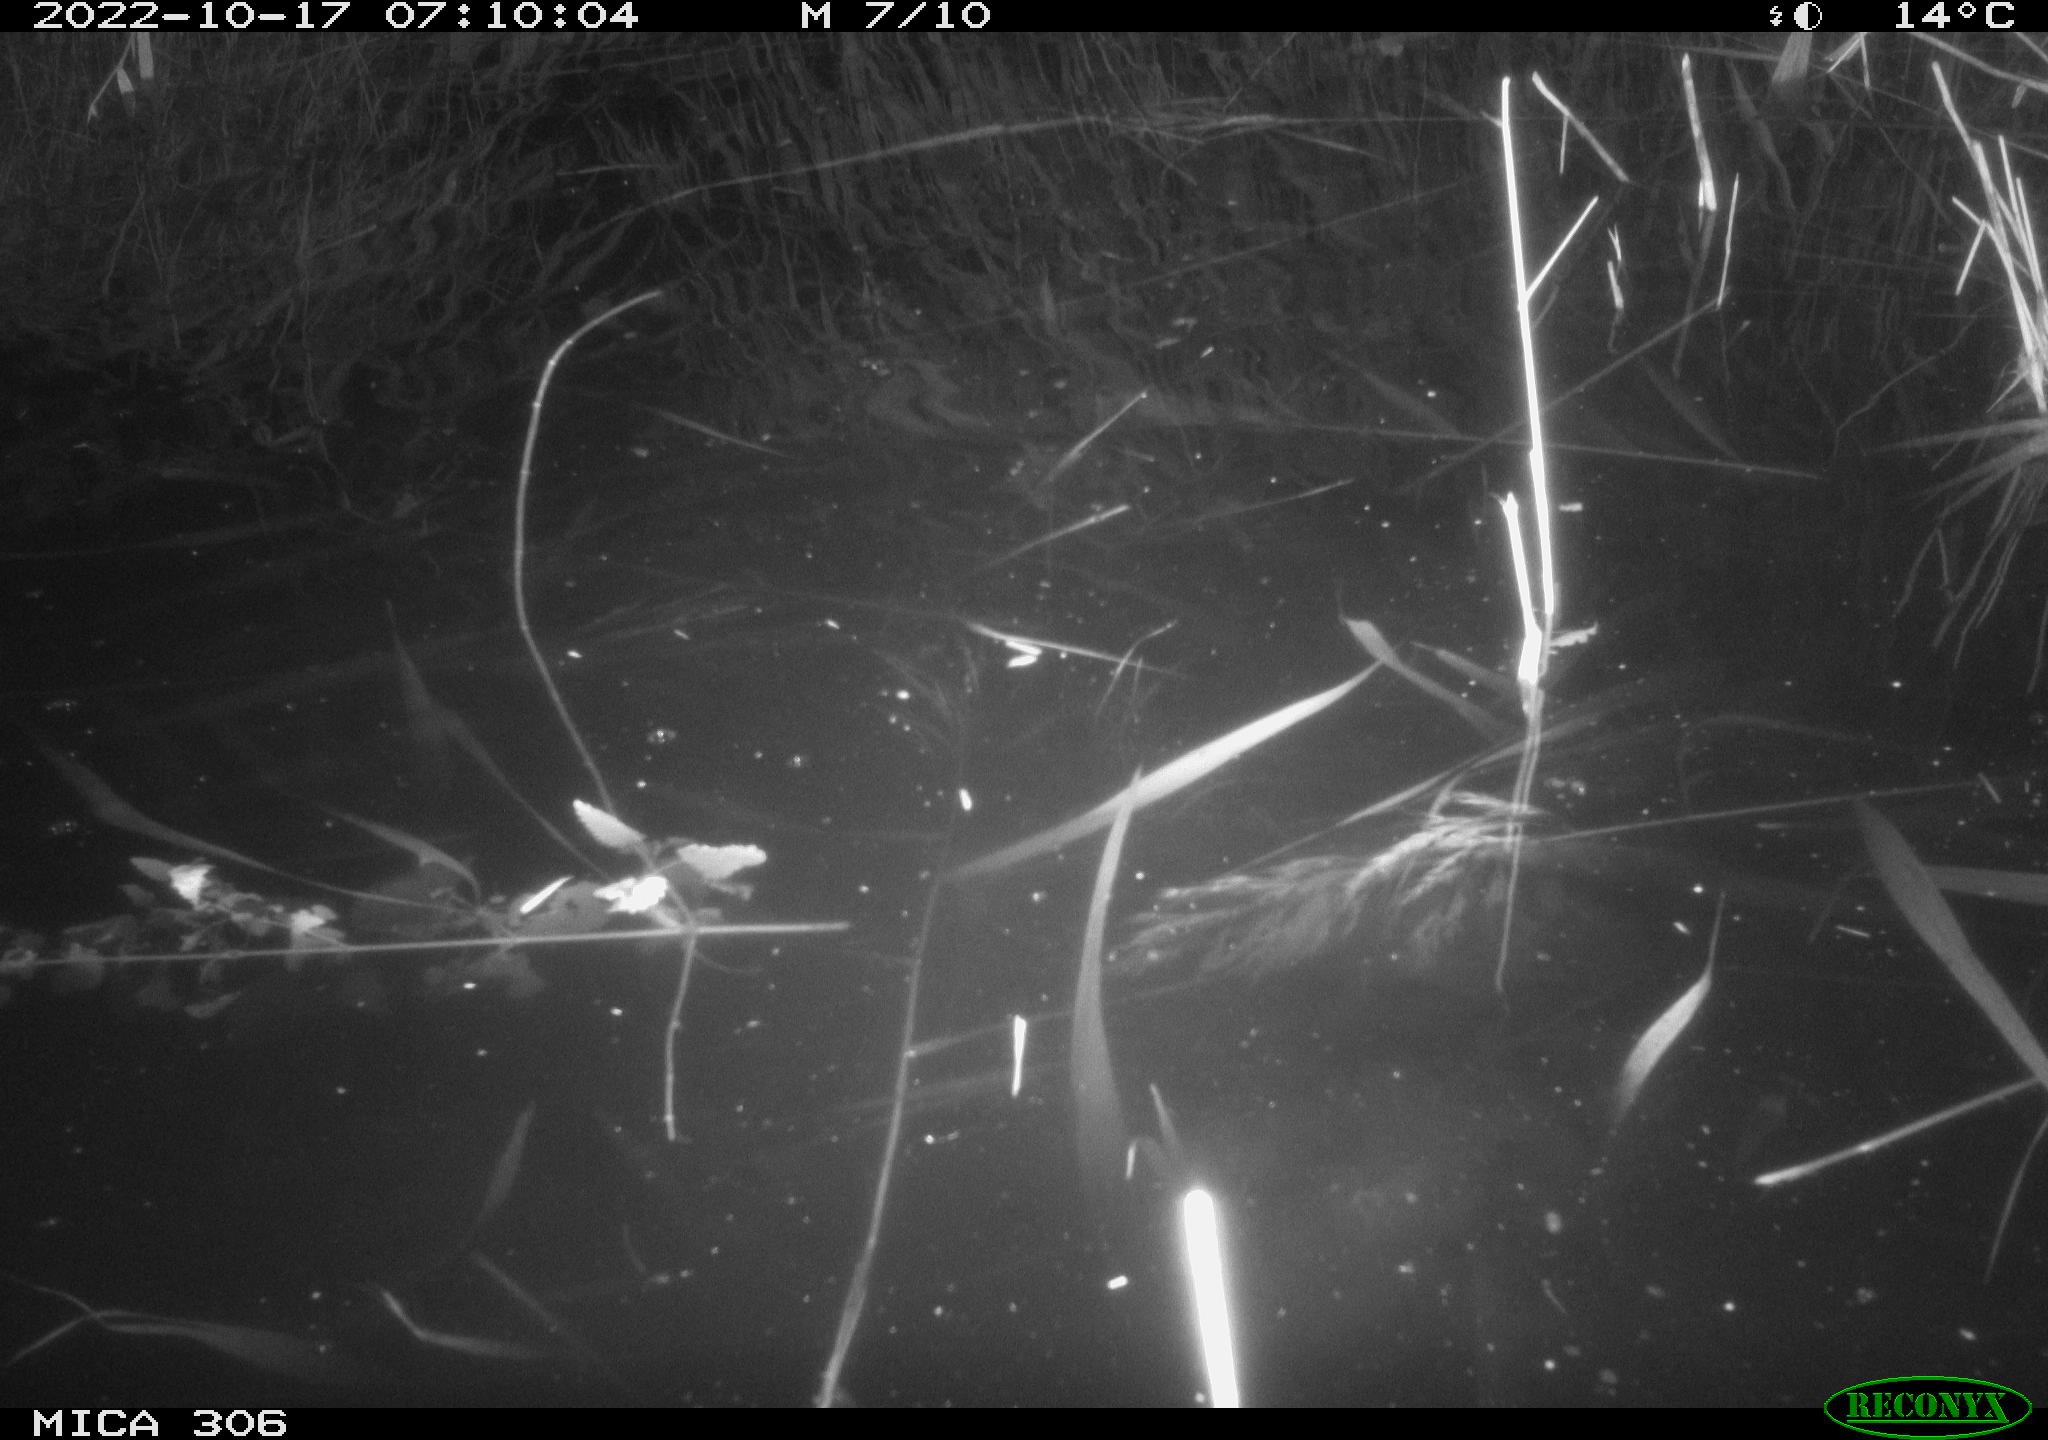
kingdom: Animalia
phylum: Chordata
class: Mammalia
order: Rodentia
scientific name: Rodentia
